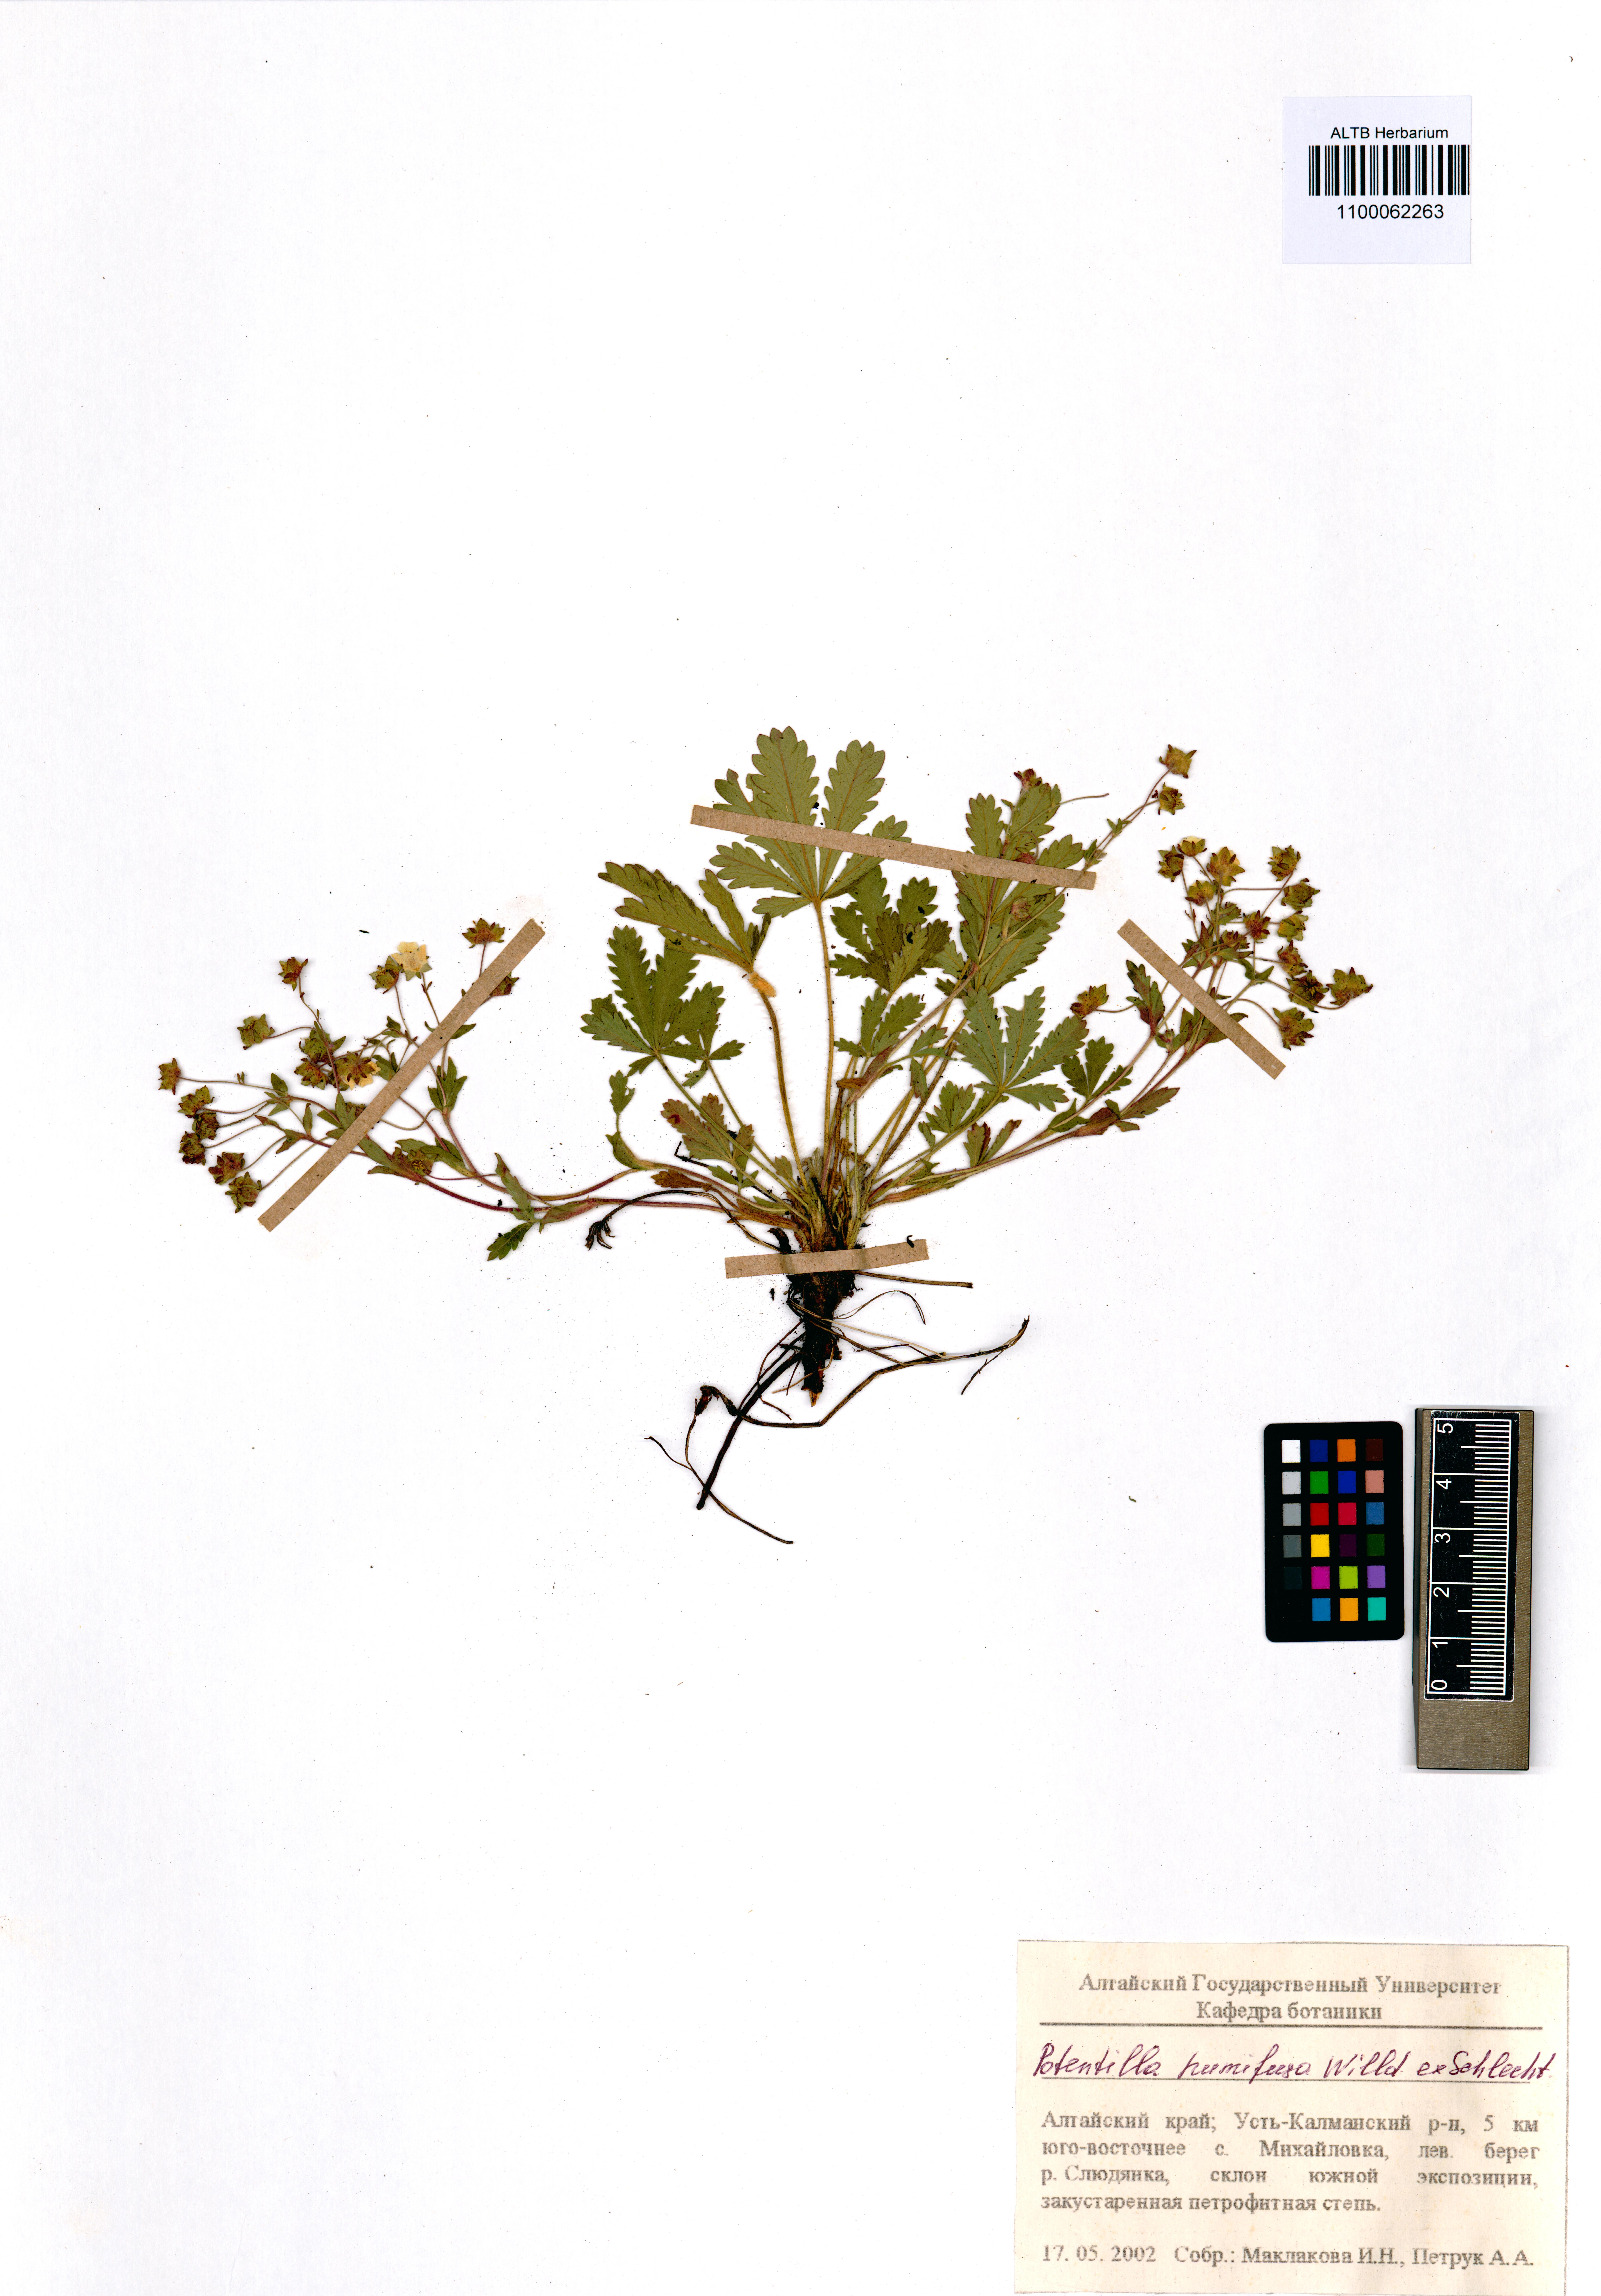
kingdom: Plantae
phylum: Tracheophyta
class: Magnoliopsida
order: Rosales
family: Rosaceae
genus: Potentilla
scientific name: Potentilla humifusa
